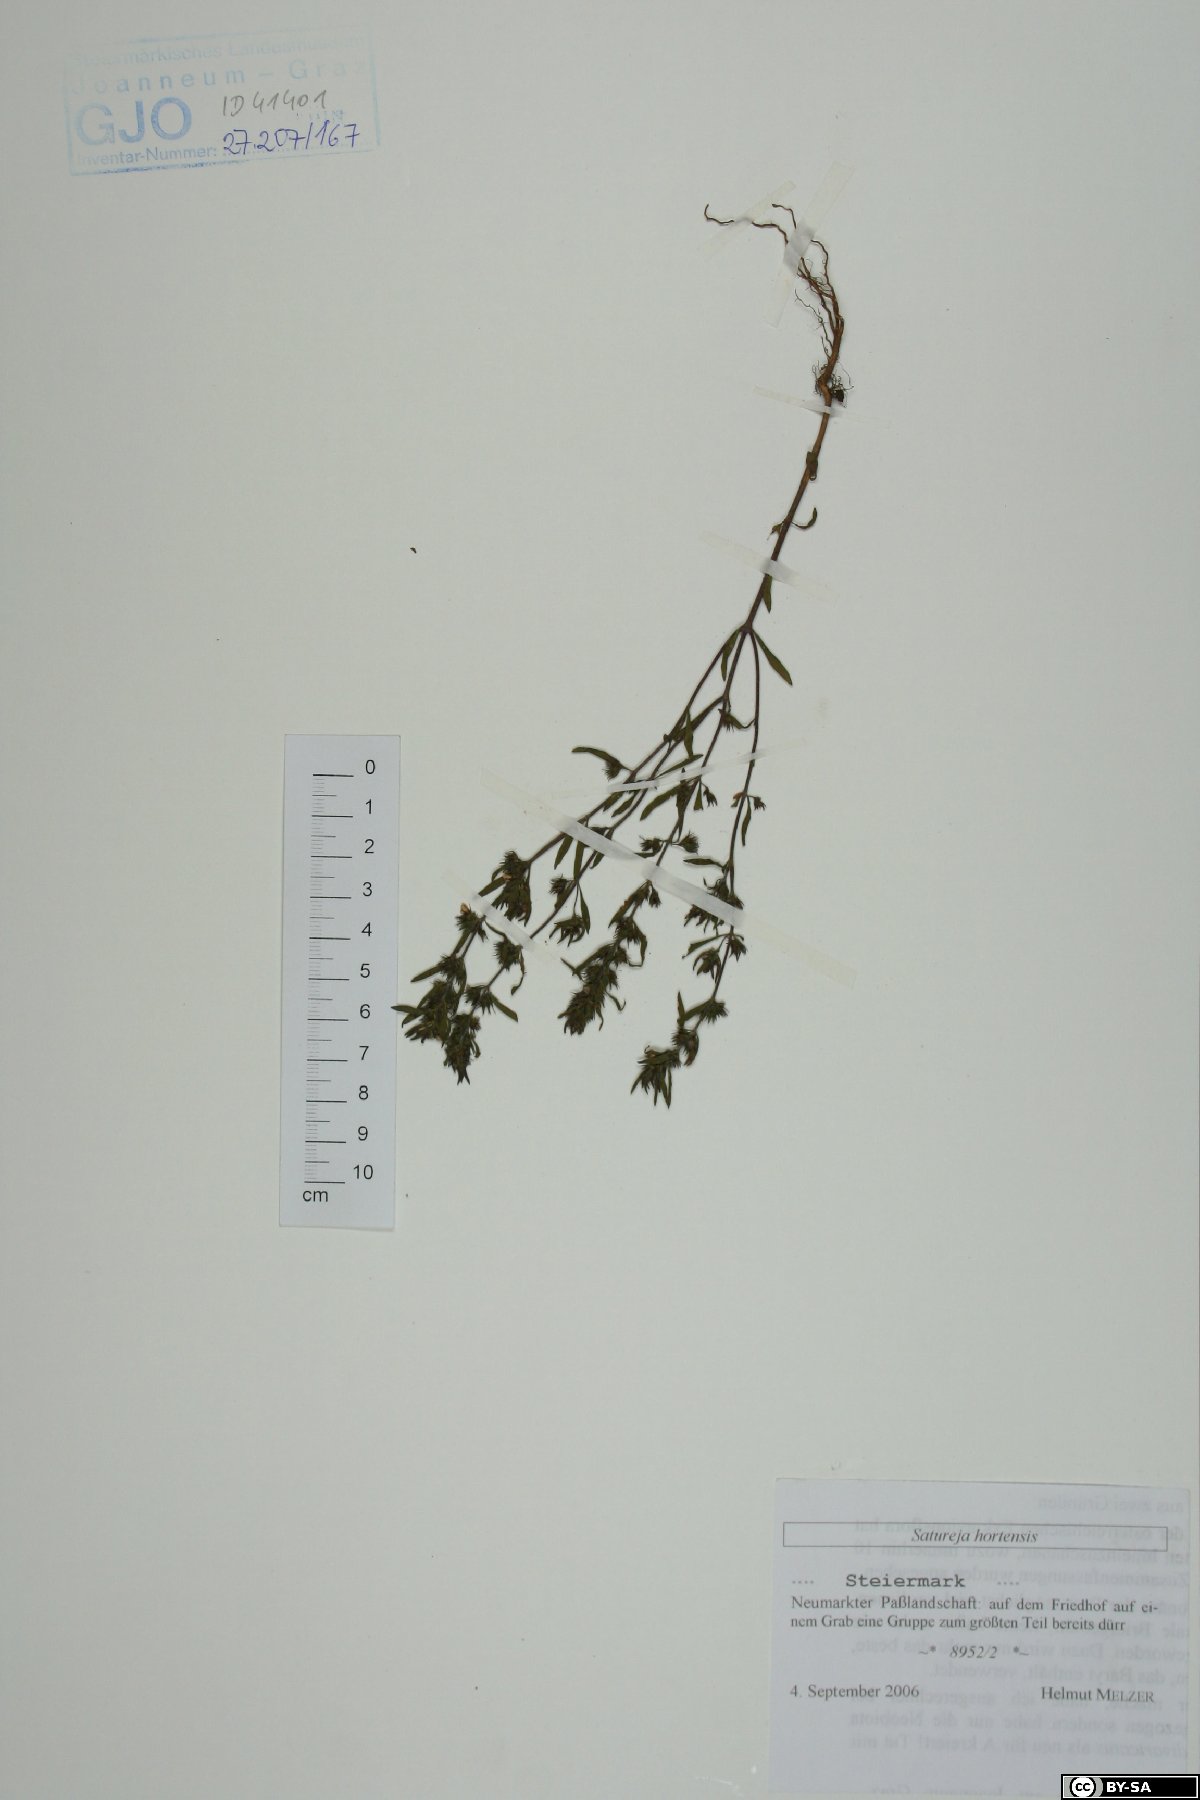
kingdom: Plantae
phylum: Tracheophyta
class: Magnoliopsida
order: Lamiales
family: Lamiaceae
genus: Satureja
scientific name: Satureja hortensis
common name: Summer savory
